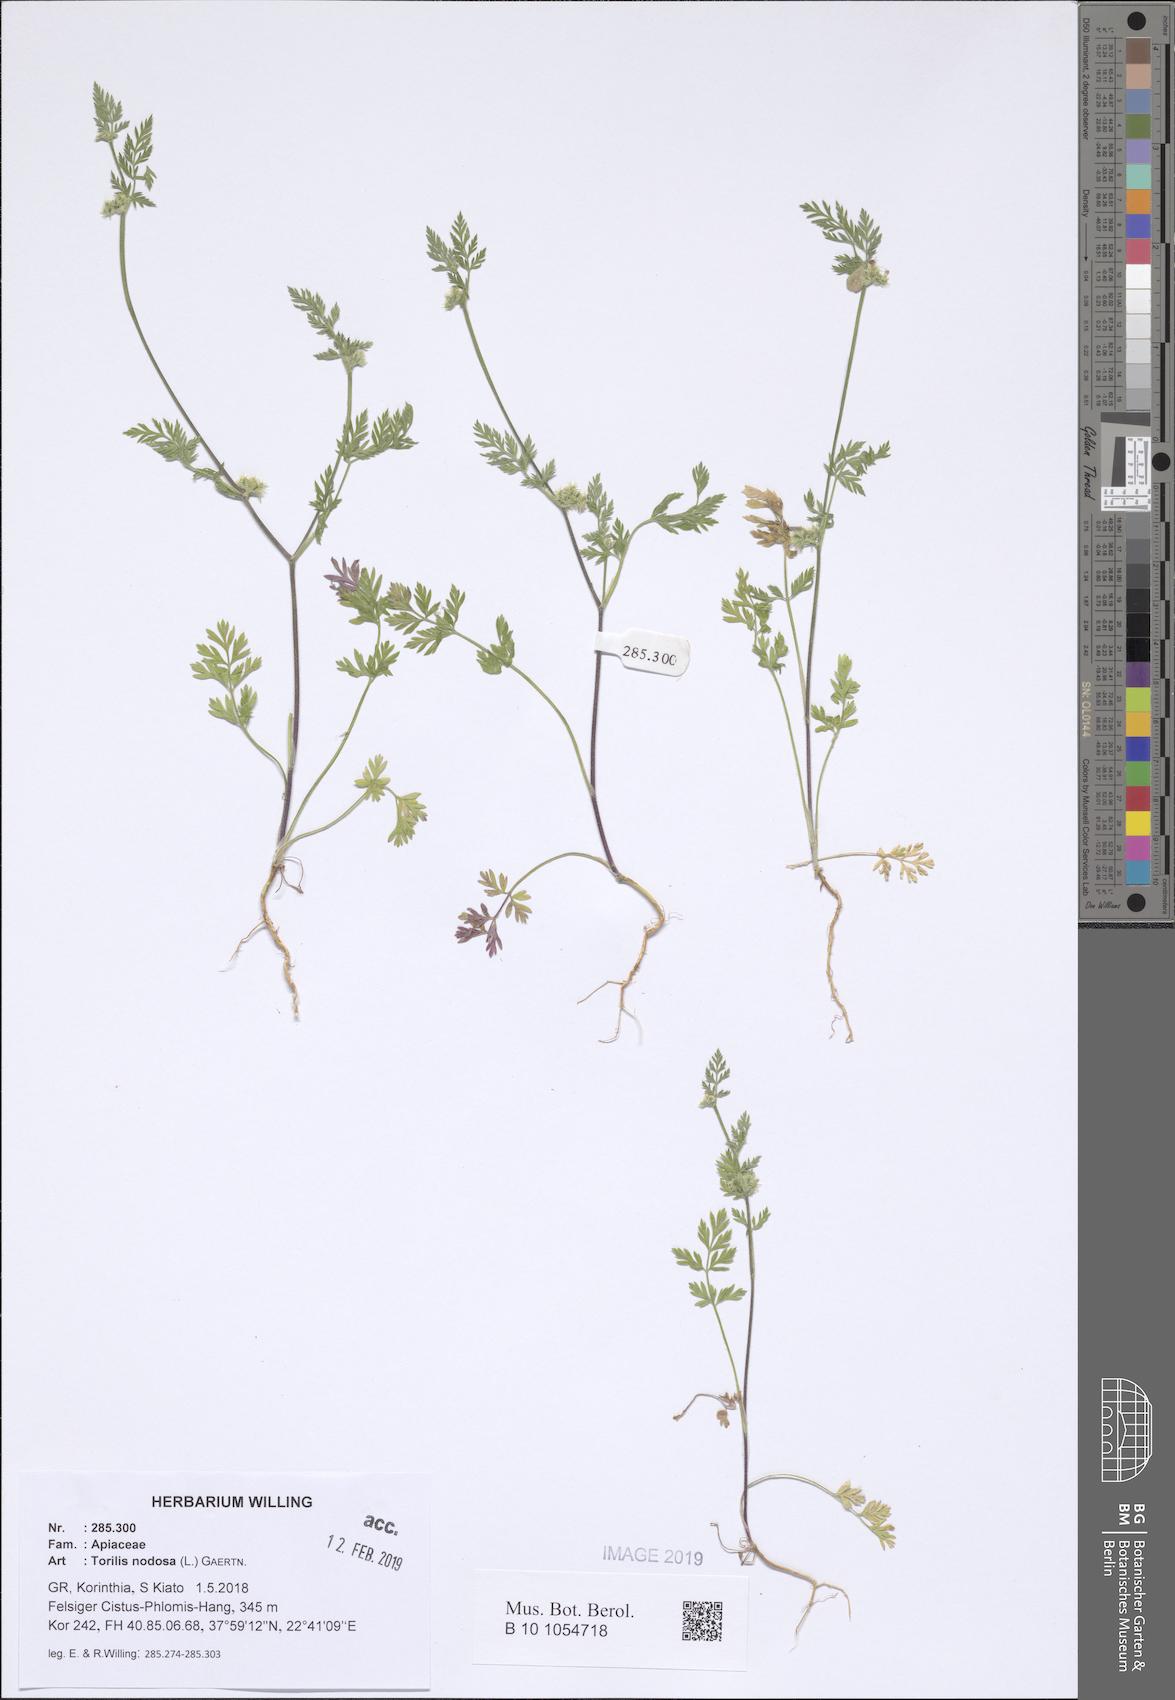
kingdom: Plantae
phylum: Tracheophyta
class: Magnoliopsida
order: Apiales
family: Apiaceae
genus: Torilis
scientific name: Torilis nodosa
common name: Knotted hedge-parsley
